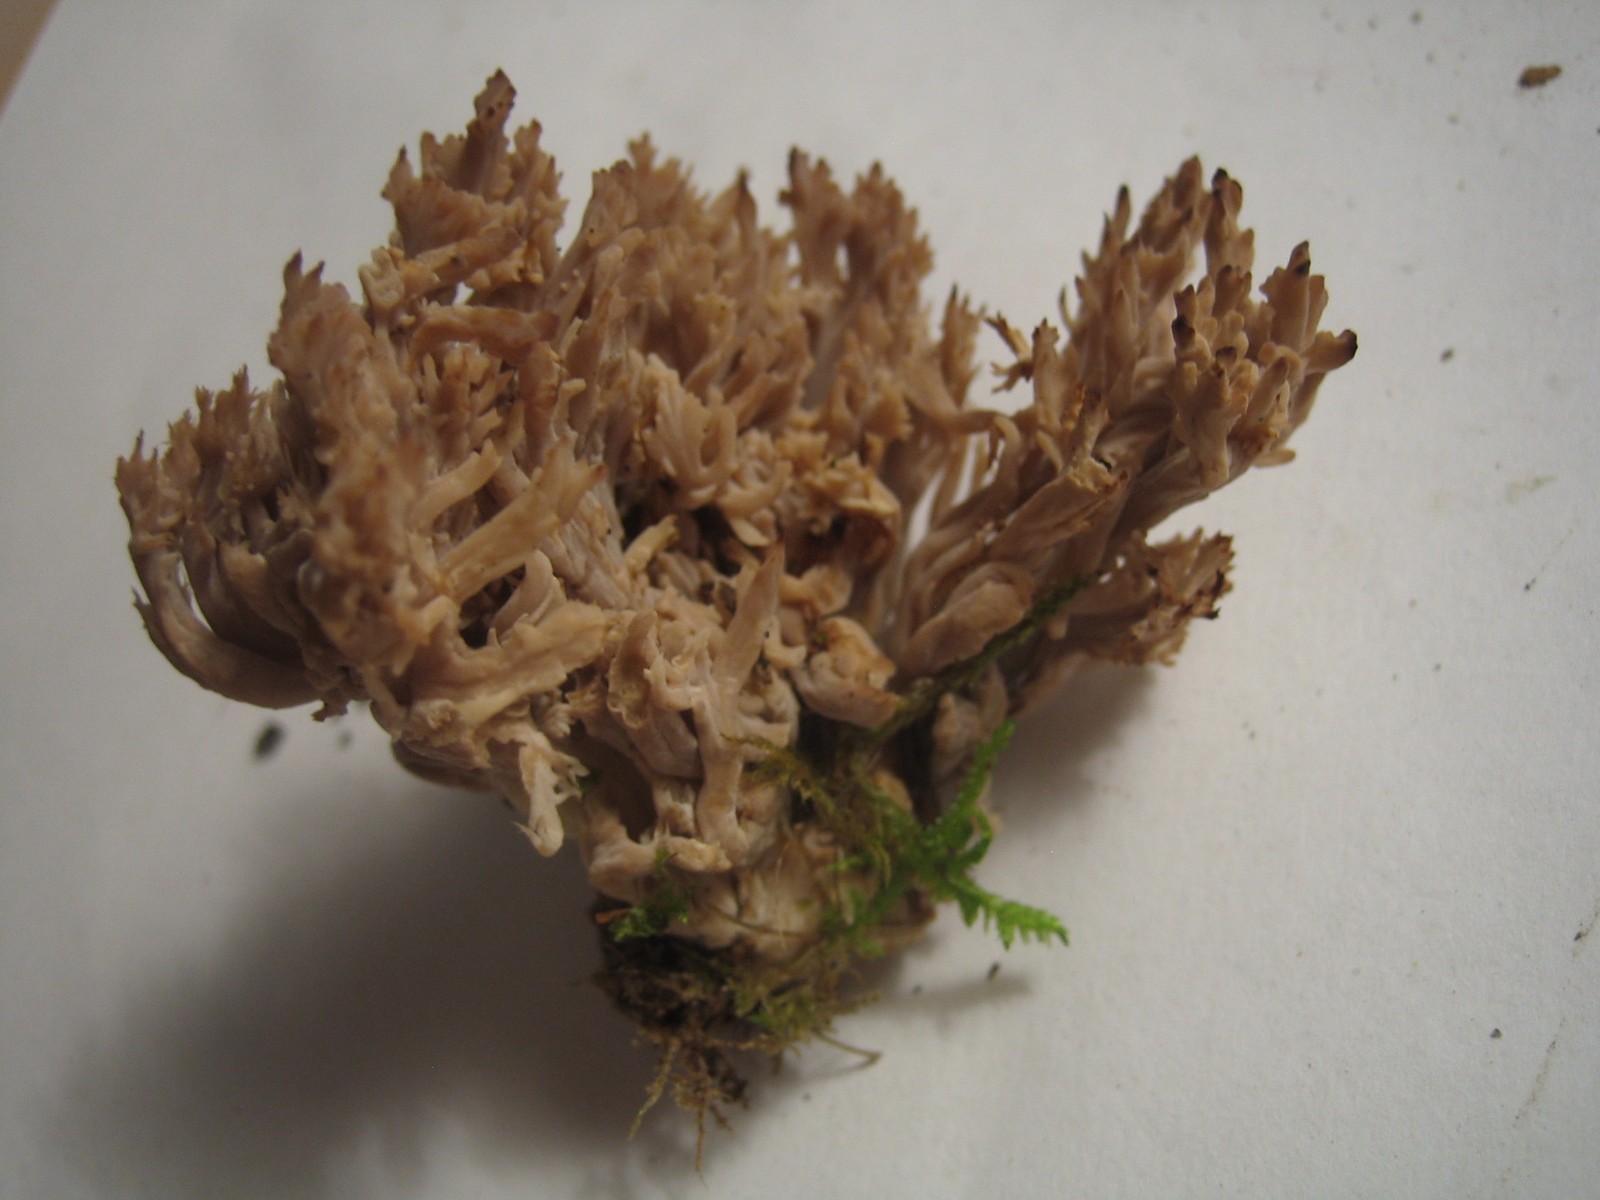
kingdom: Fungi
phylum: Basidiomycota
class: Agaricomycetes
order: Cantharellales
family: Hydnaceae
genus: Clavulina
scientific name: Clavulina
